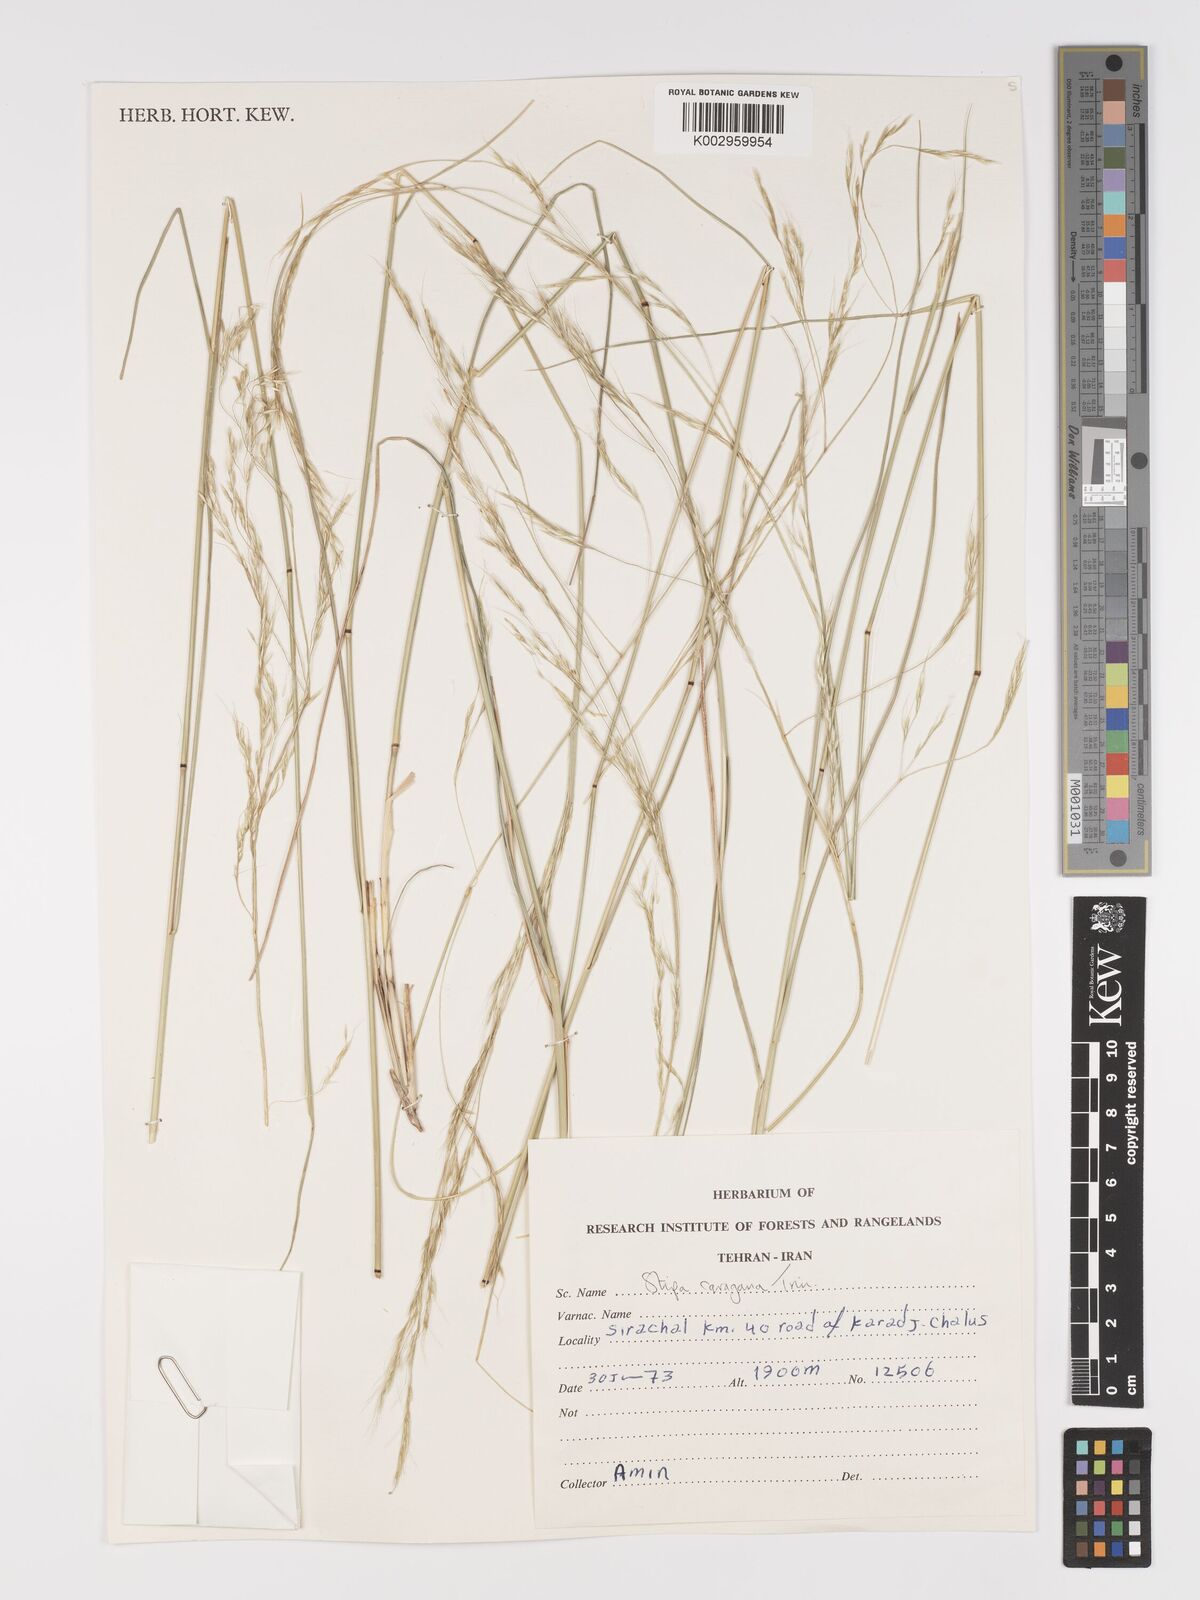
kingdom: Plantae
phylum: Tracheophyta
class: Liliopsida
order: Poales
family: Poaceae
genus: Stipa
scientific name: Stipa conferta
